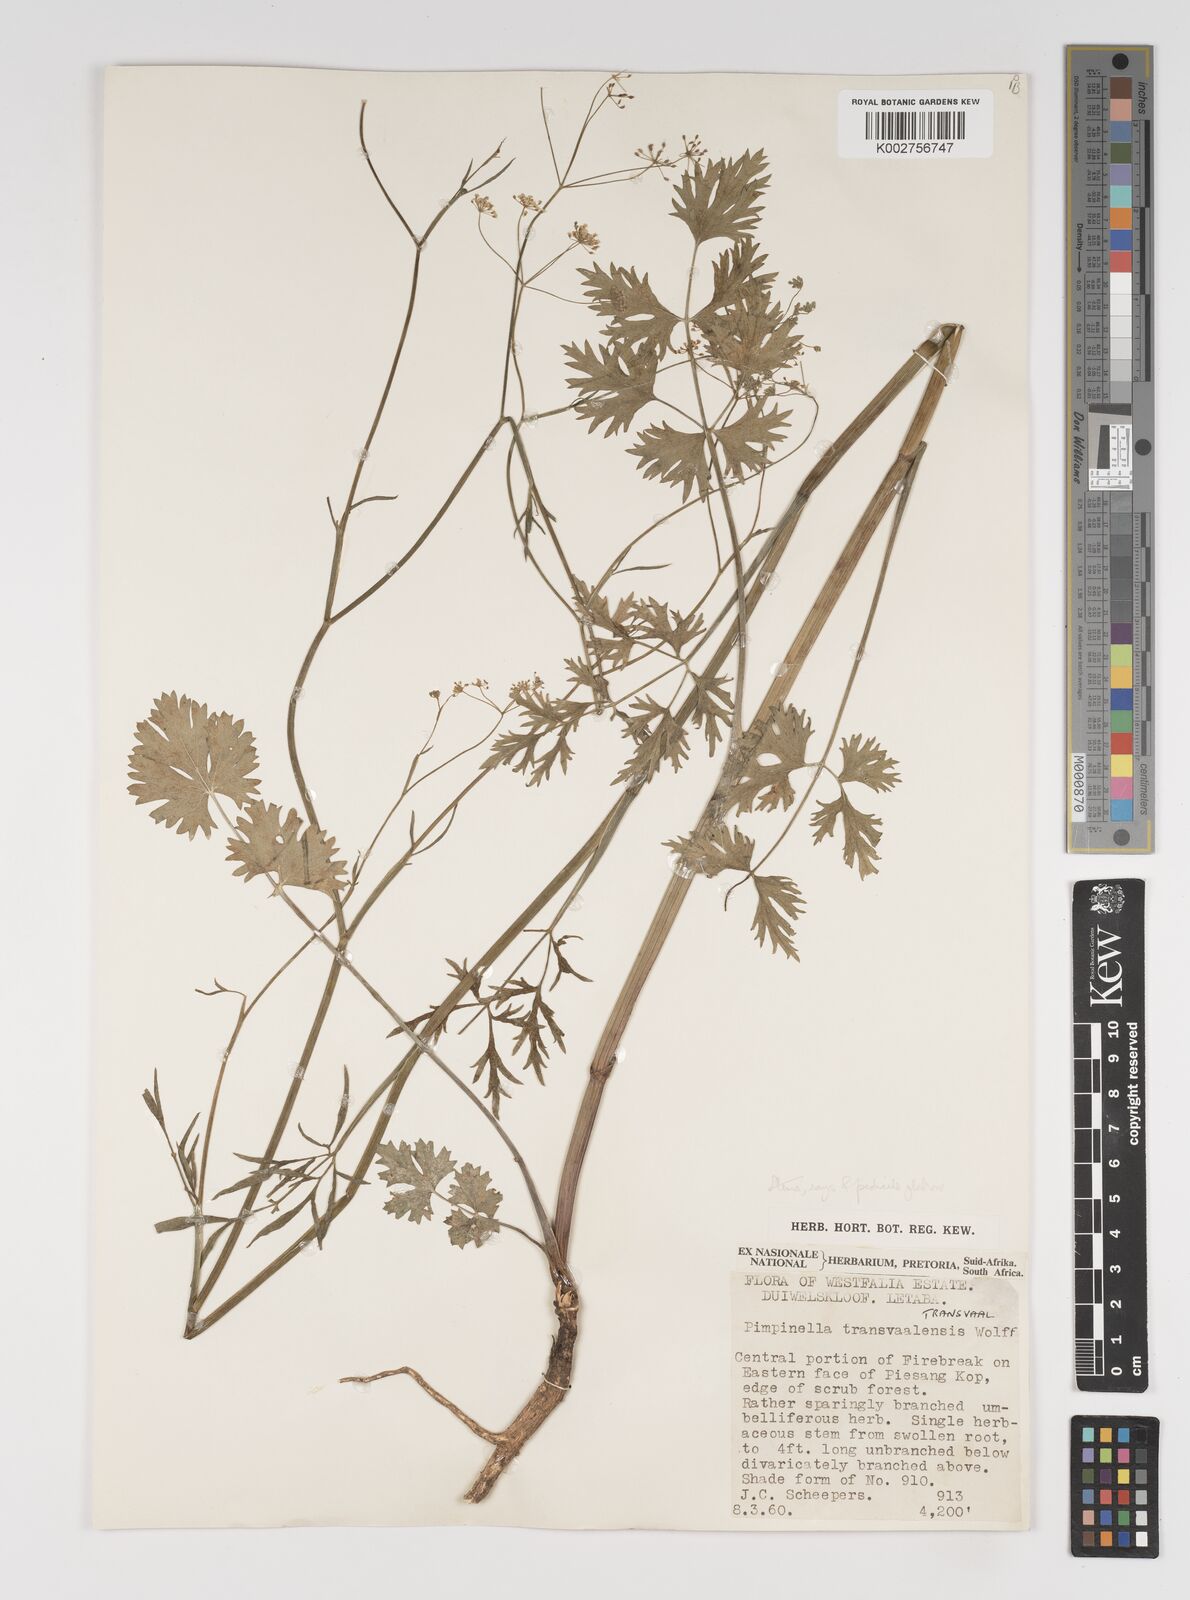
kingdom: Plantae
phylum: Tracheophyta
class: Magnoliopsida
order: Apiales
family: Apiaceae
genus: Pimpinella
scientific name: Pimpinella transvaalensis
